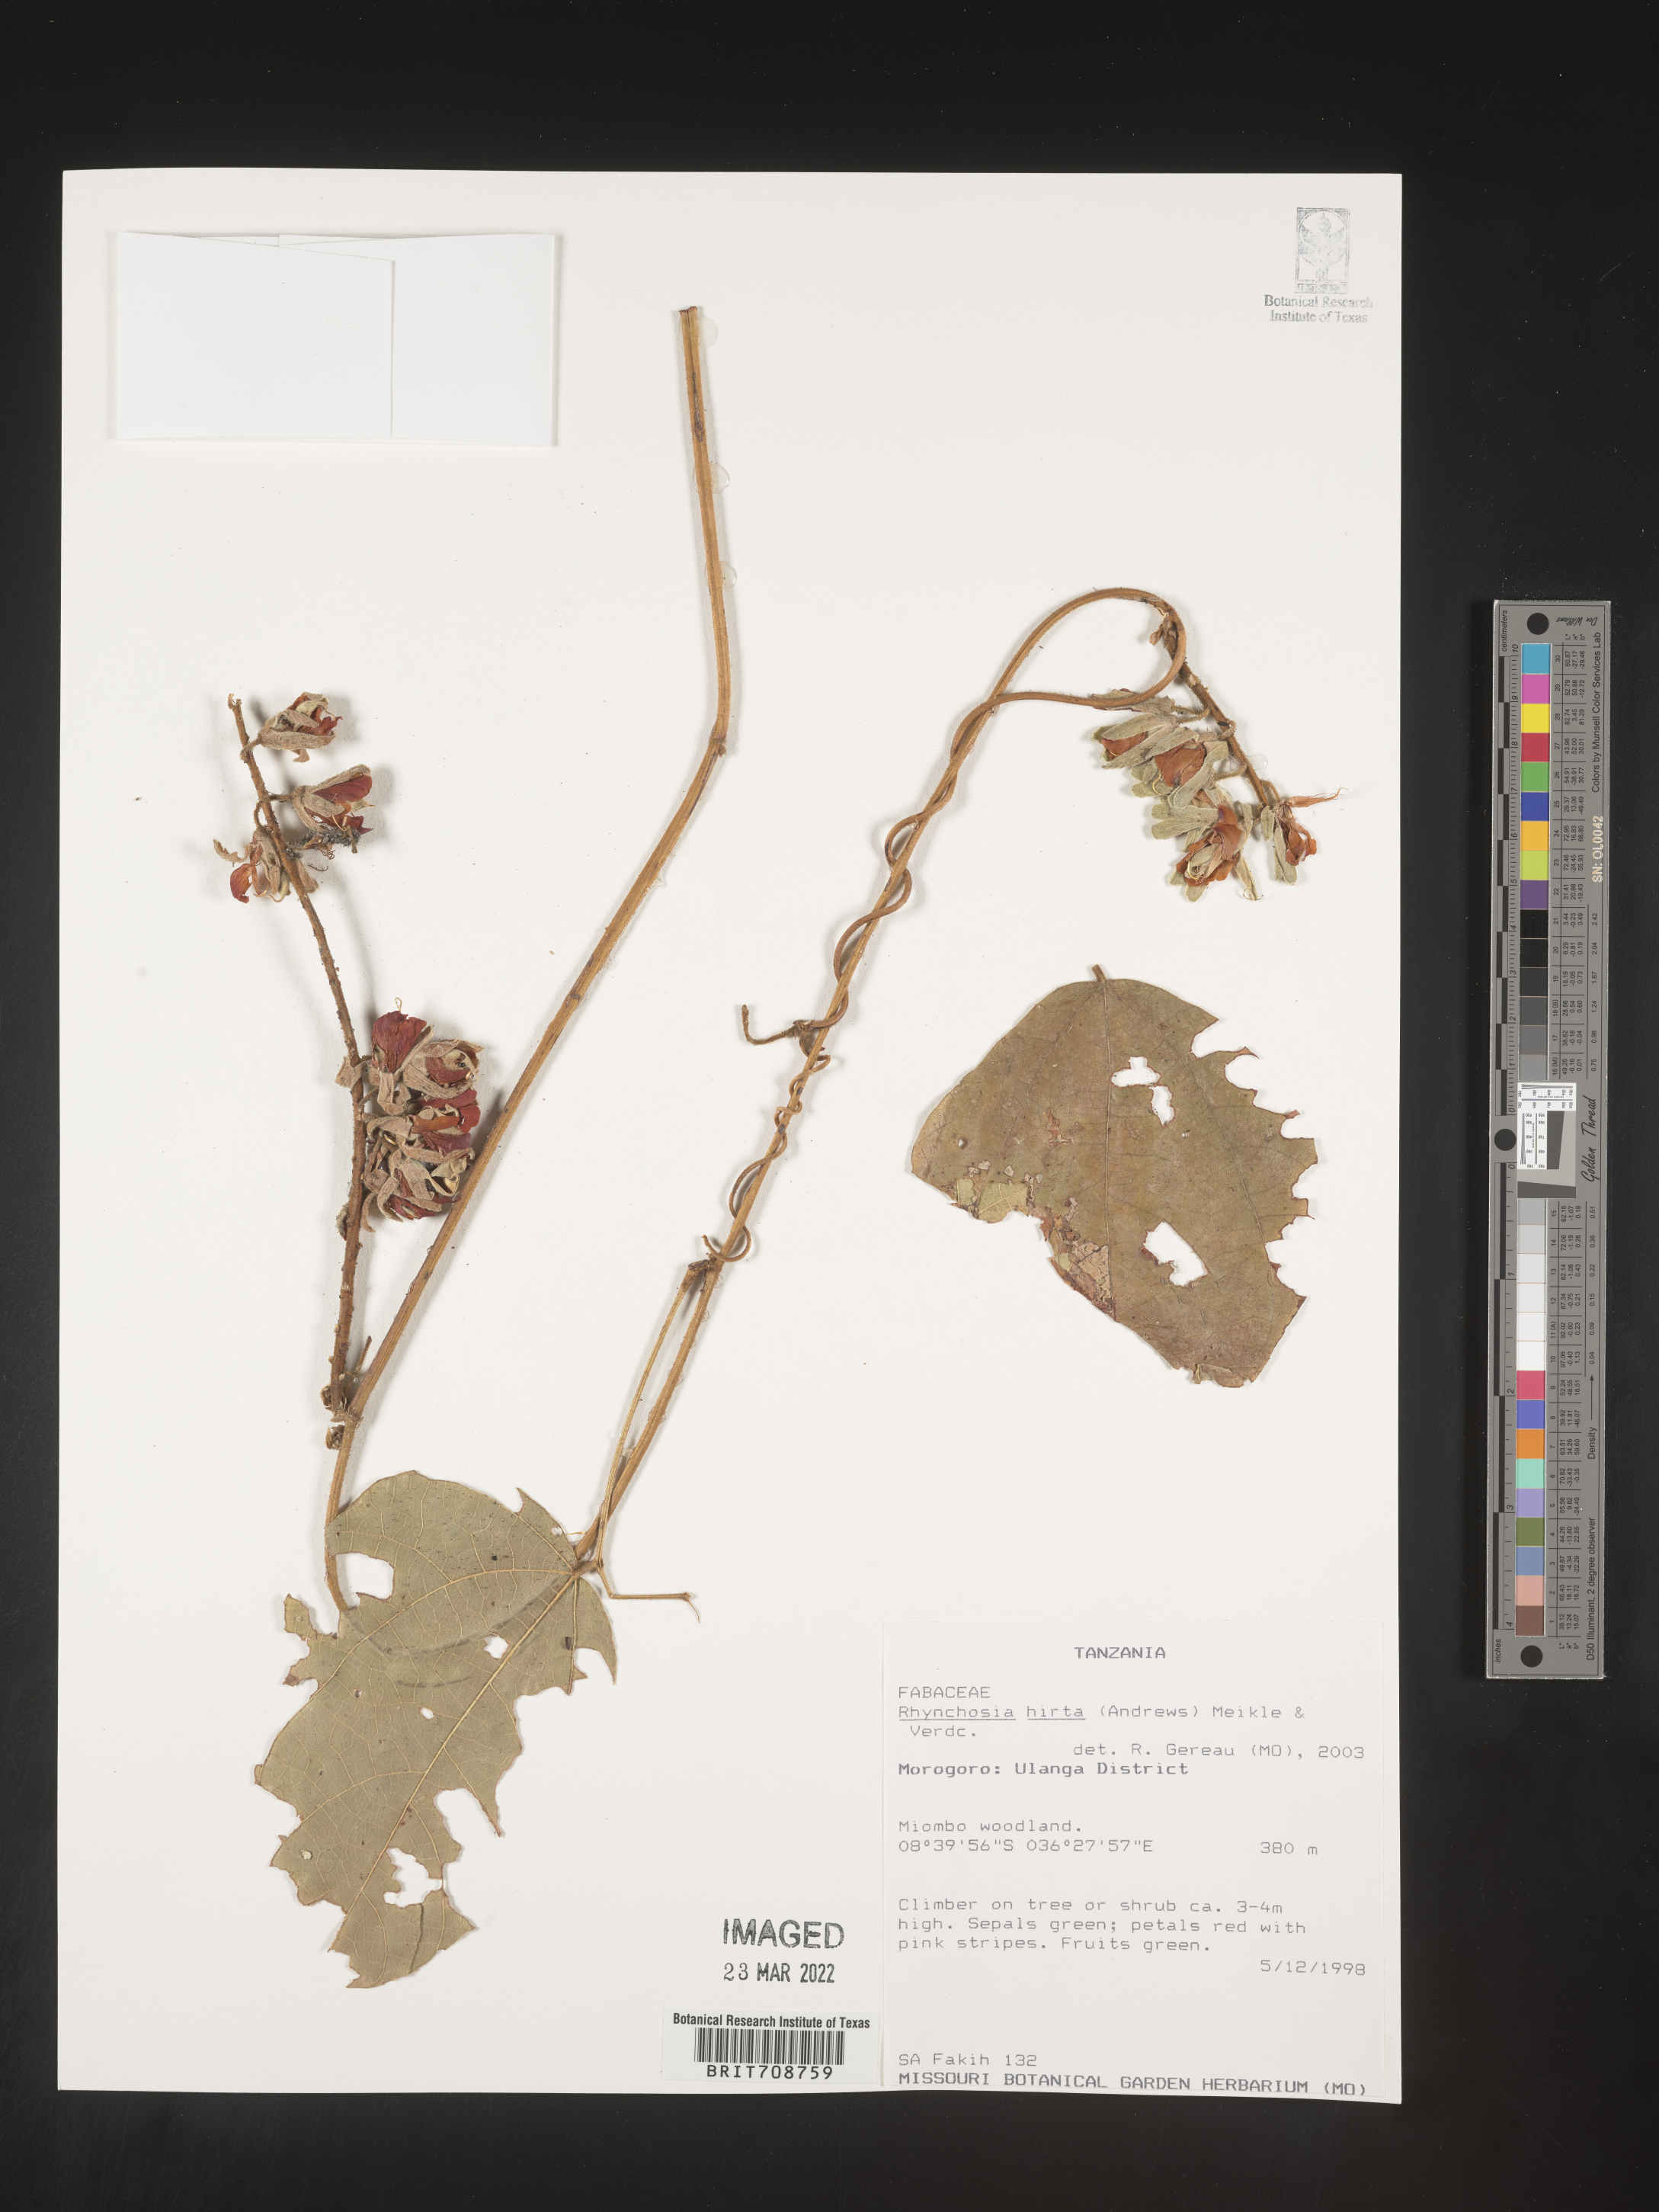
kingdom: Plantae
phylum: Tracheophyta
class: Magnoliopsida
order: Fabales
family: Fabaceae
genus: Rhynchosia
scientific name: Rhynchosia
